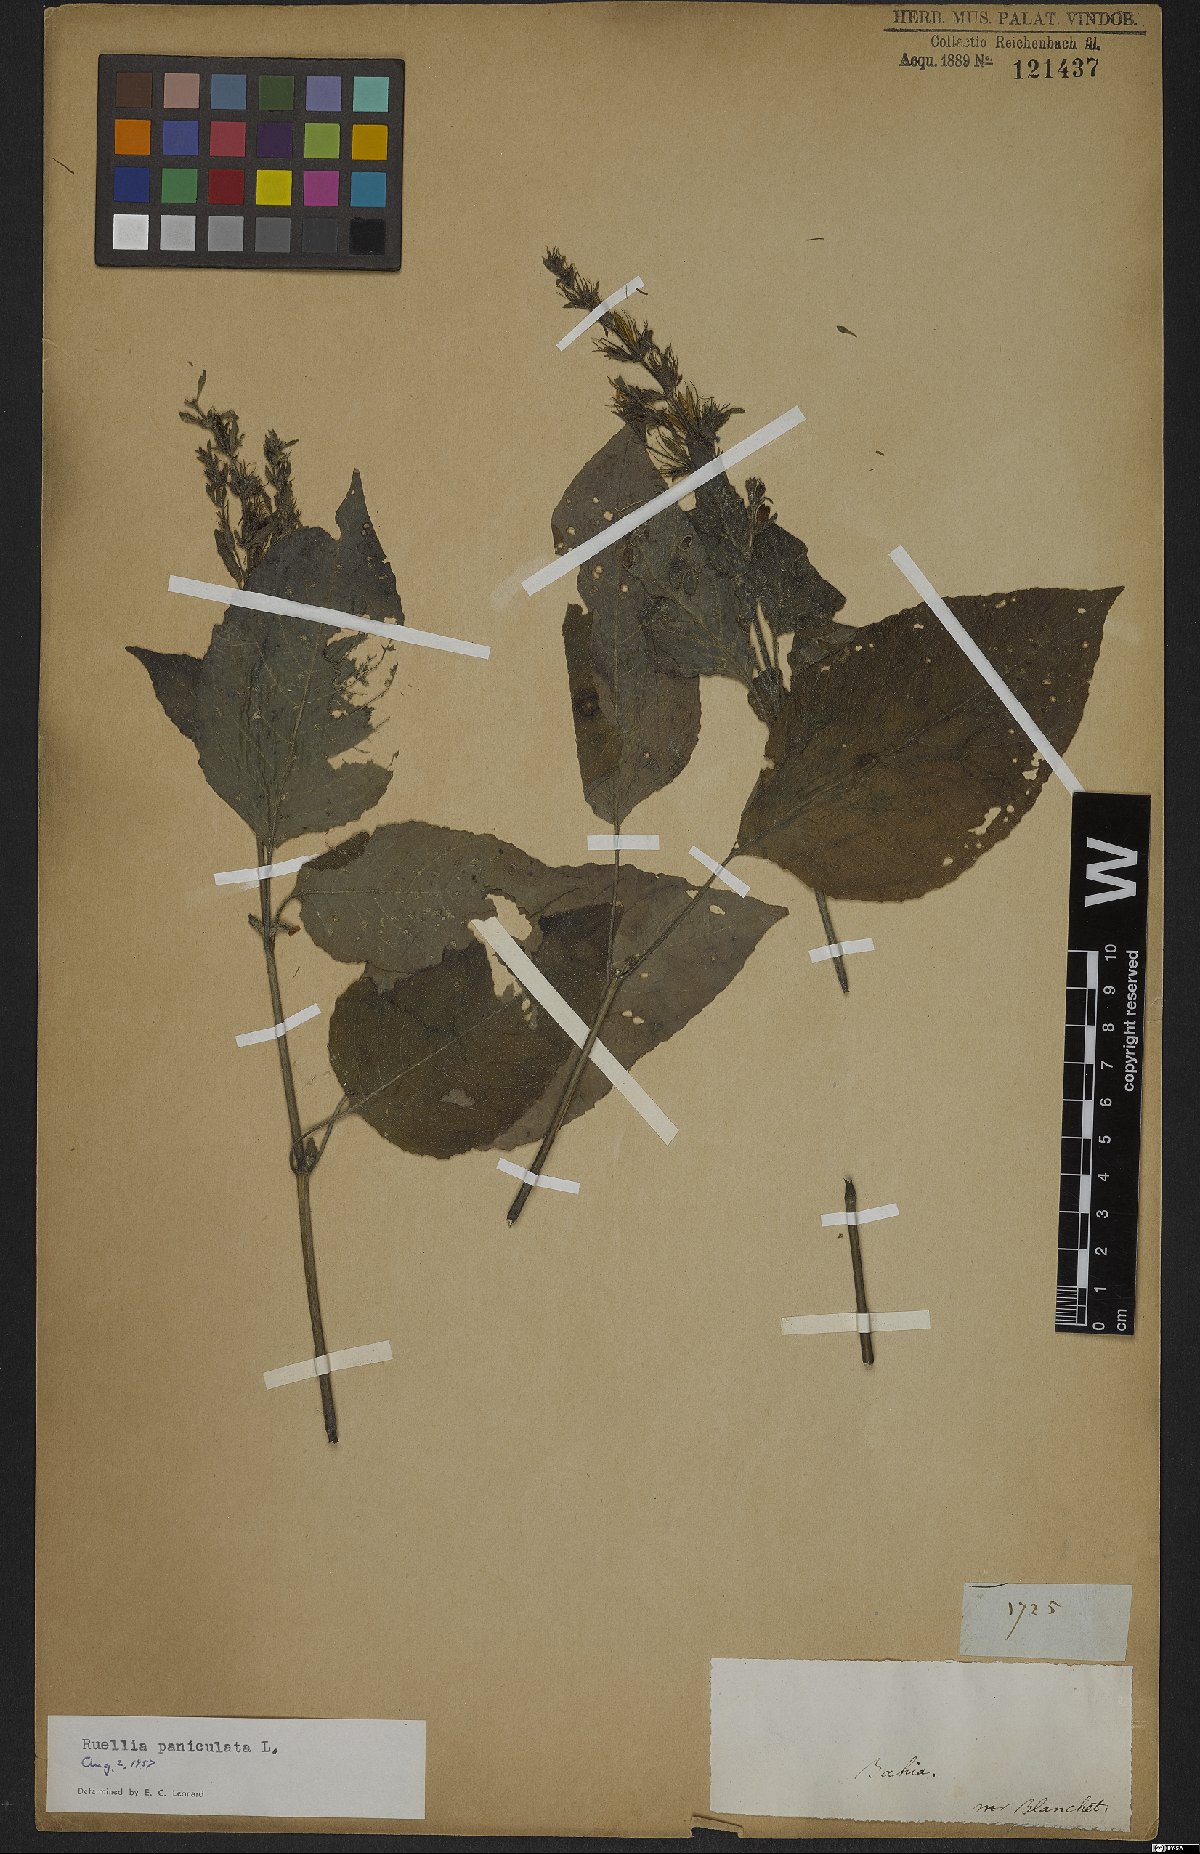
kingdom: Plantae
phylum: Tracheophyta
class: Magnoliopsida
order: Lamiales
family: Acanthaceae
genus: Barleria
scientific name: Barleria tomentosa
